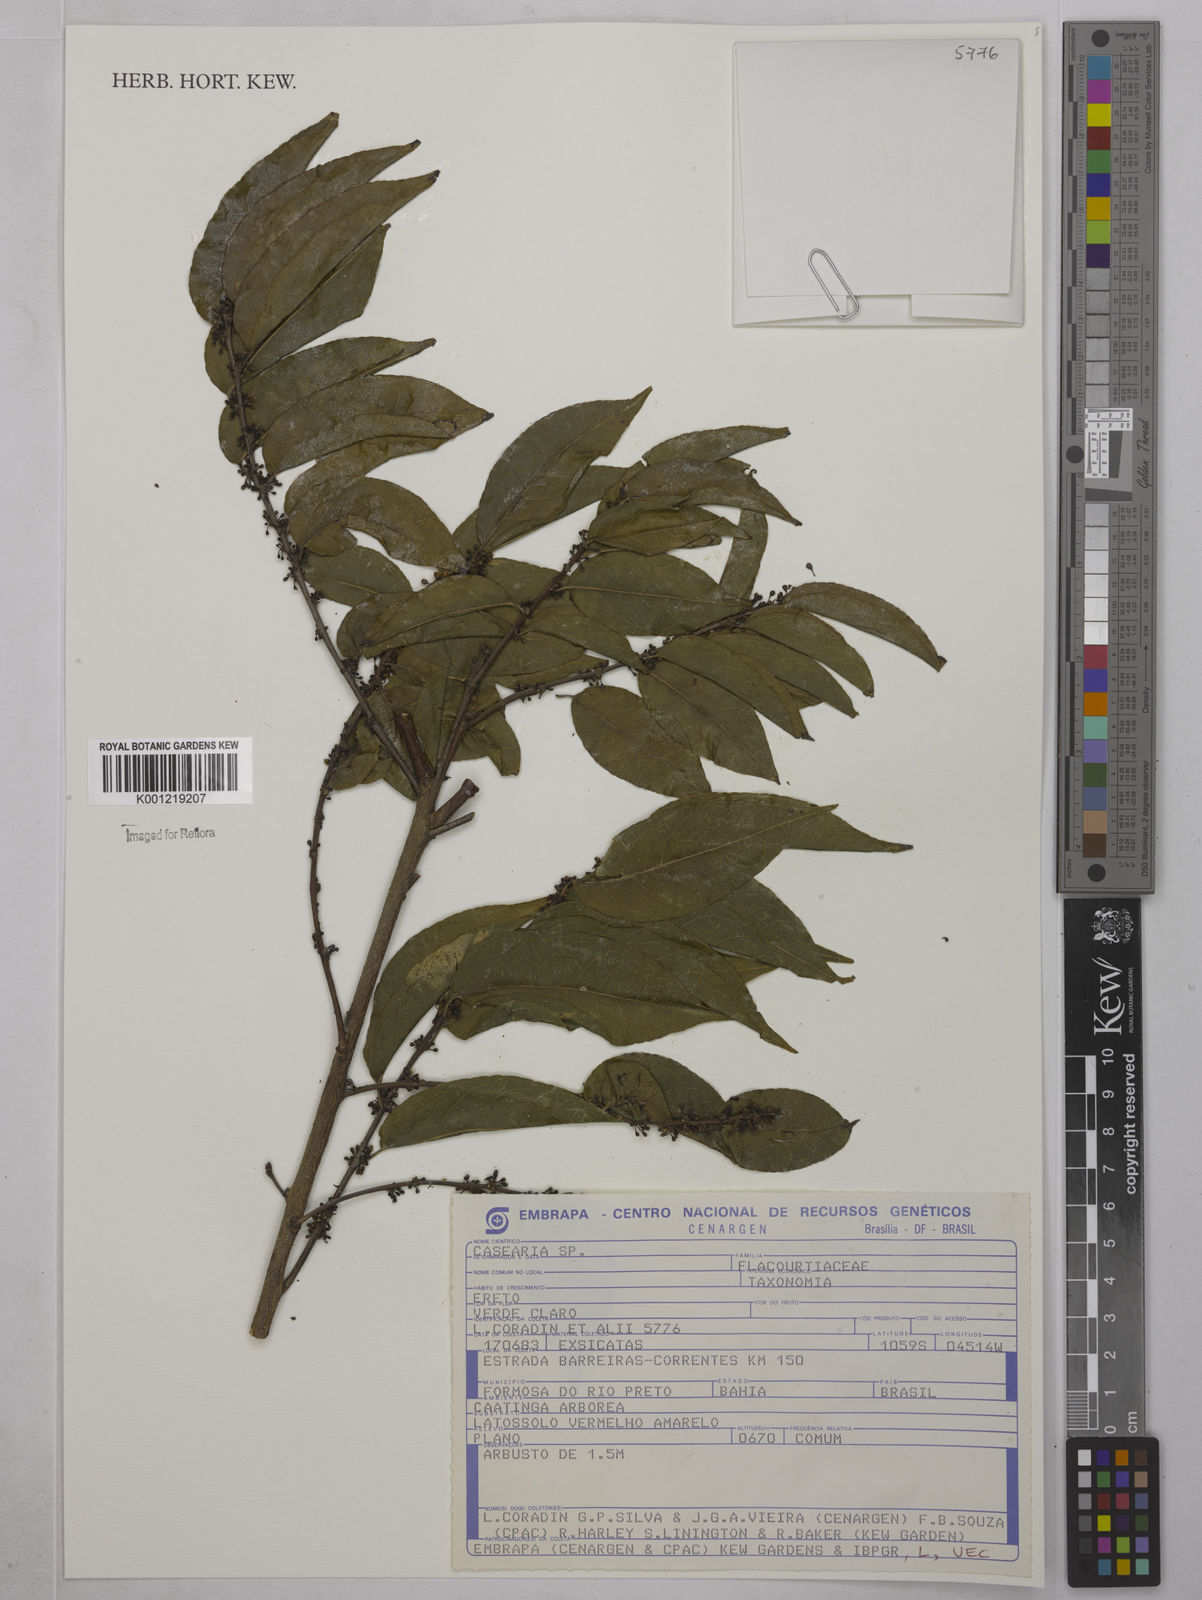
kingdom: Plantae
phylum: Tracheophyta
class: Magnoliopsida
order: Malpighiales
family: Salicaceae
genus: Casearia
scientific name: Casearia
